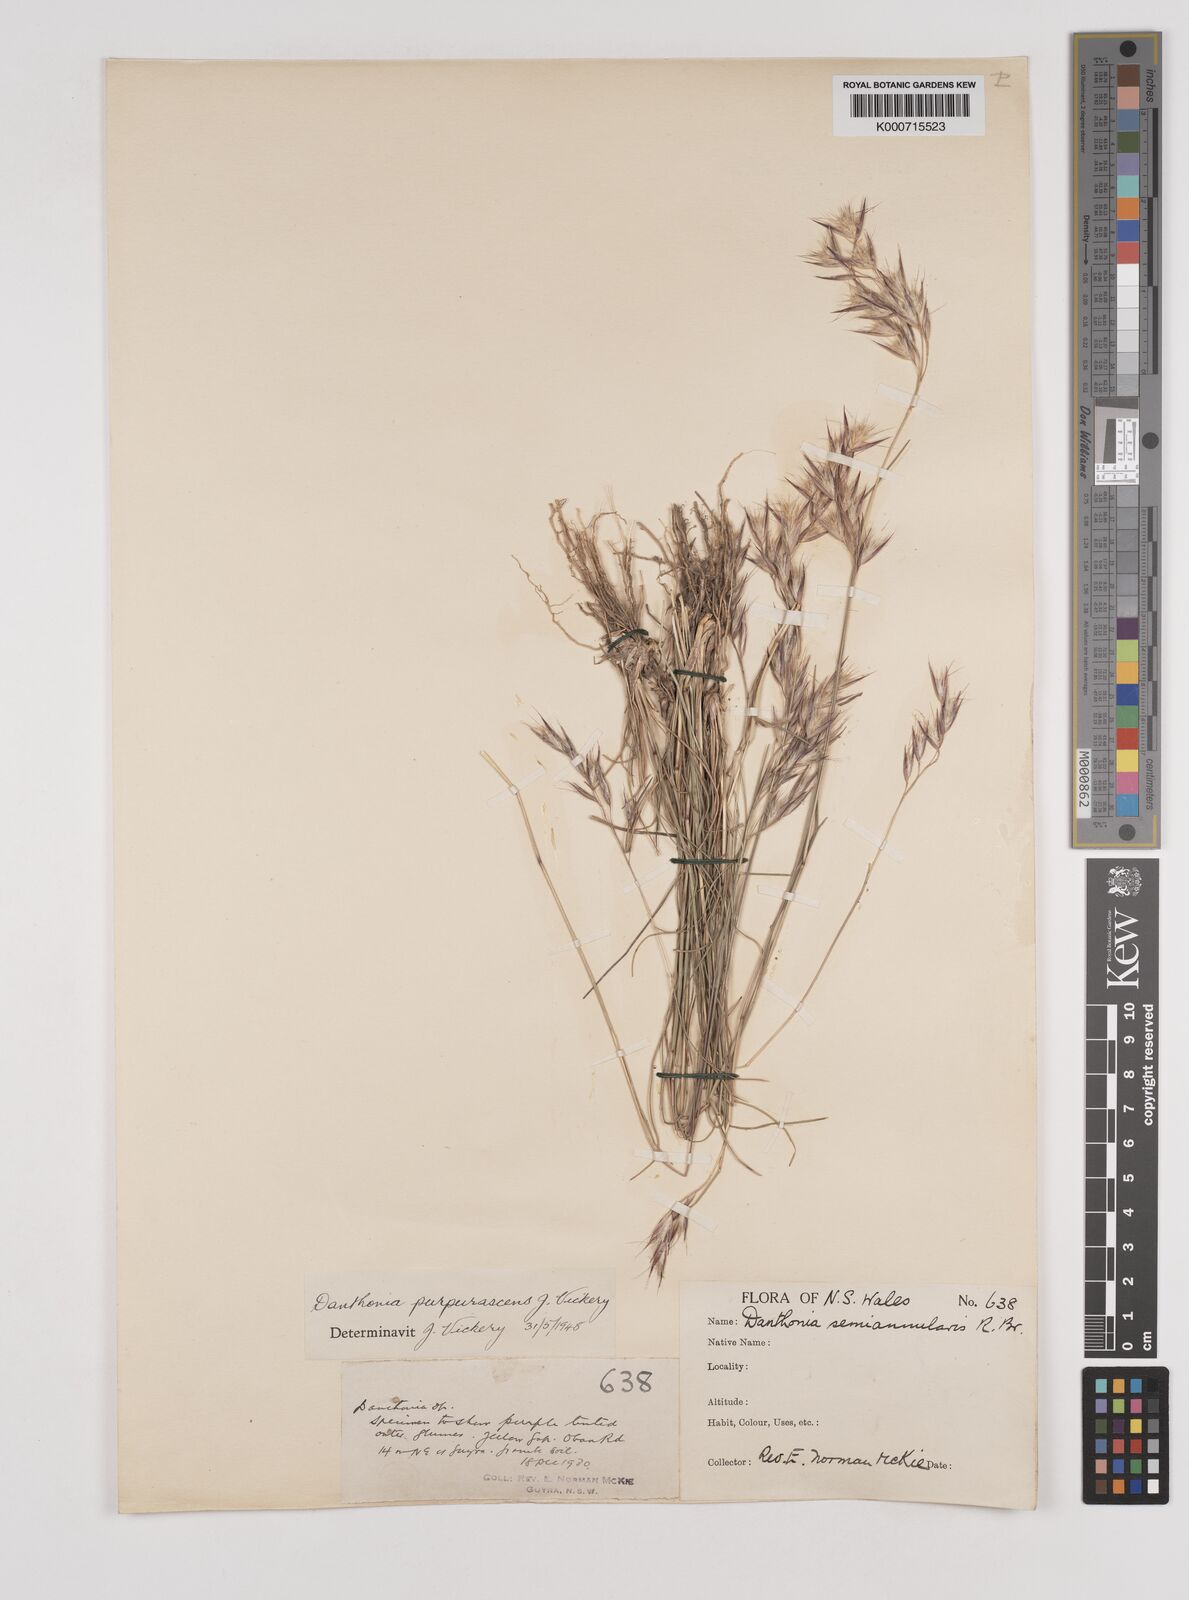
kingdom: Plantae
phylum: Tracheophyta
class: Liliopsida
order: Poales
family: Poaceae
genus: Rytidosperma
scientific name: Rytidosperma tenuius
